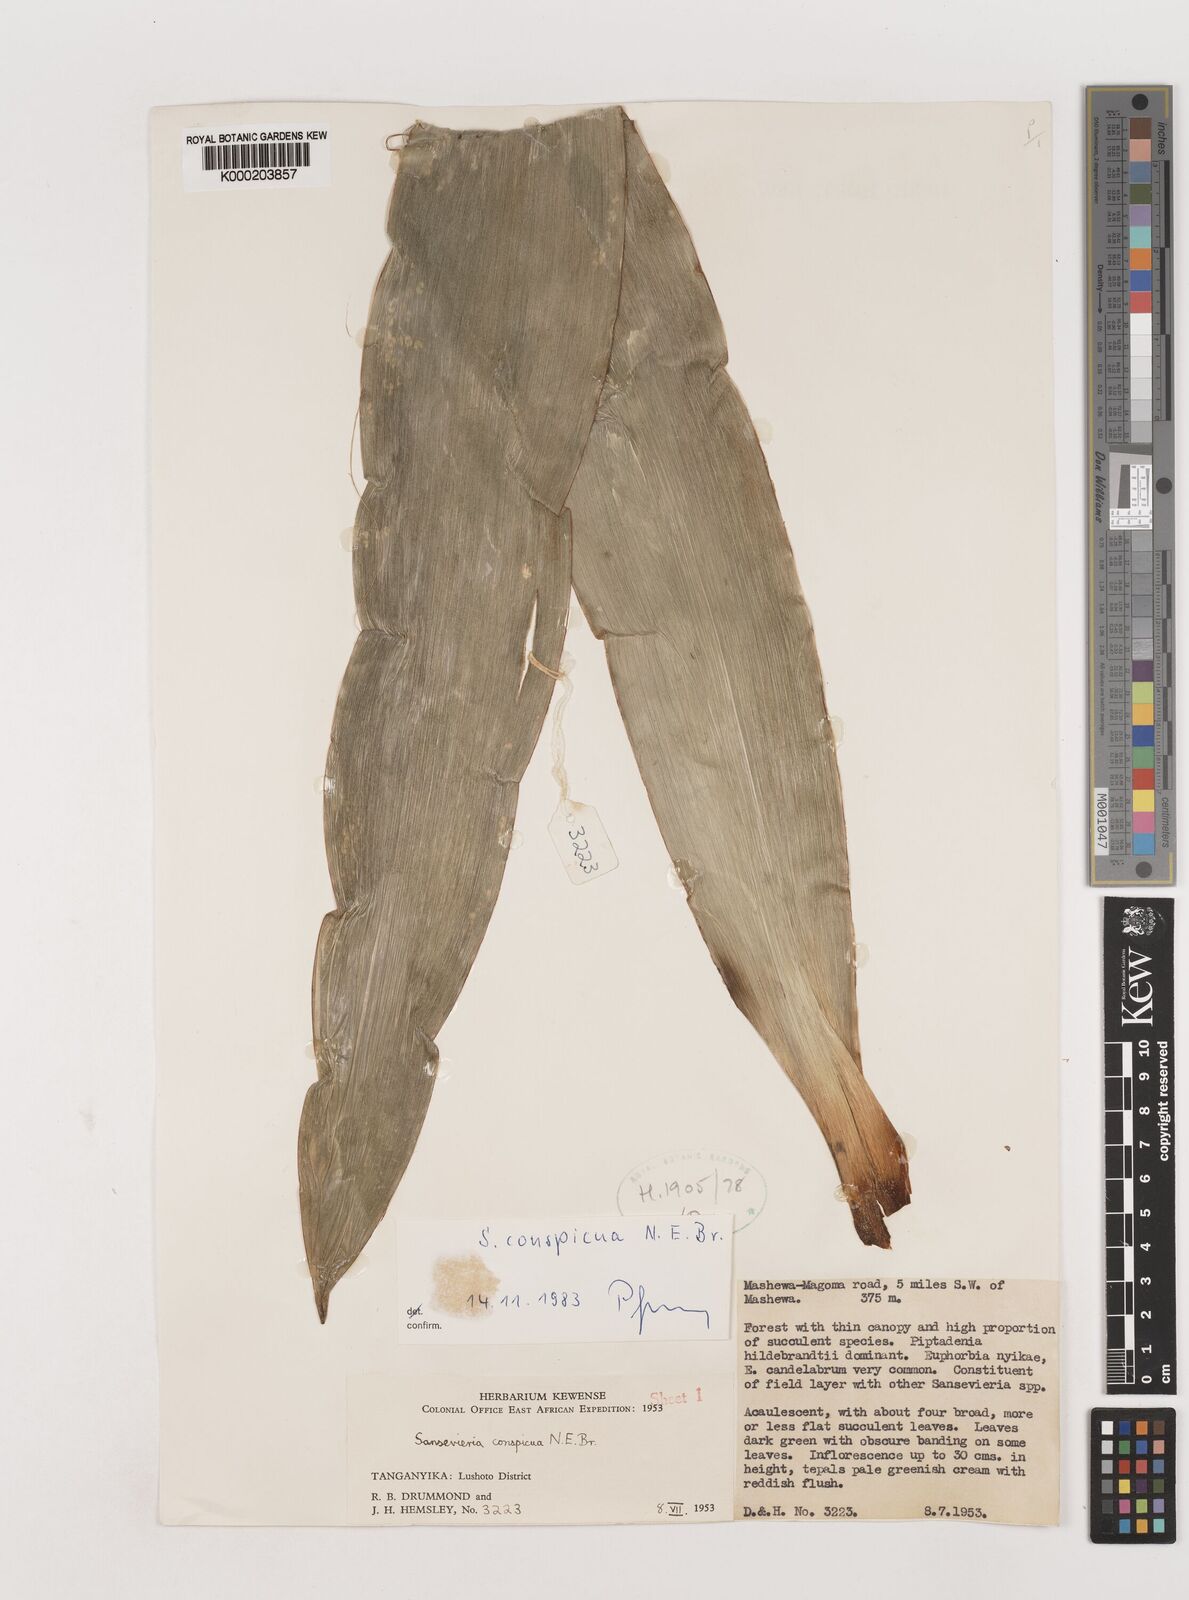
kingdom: Plantae
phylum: Tracheophyta
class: Liliopsida
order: Asparagales
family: Asparagaceae
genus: Dracaena
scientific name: Dracaena conspicua
